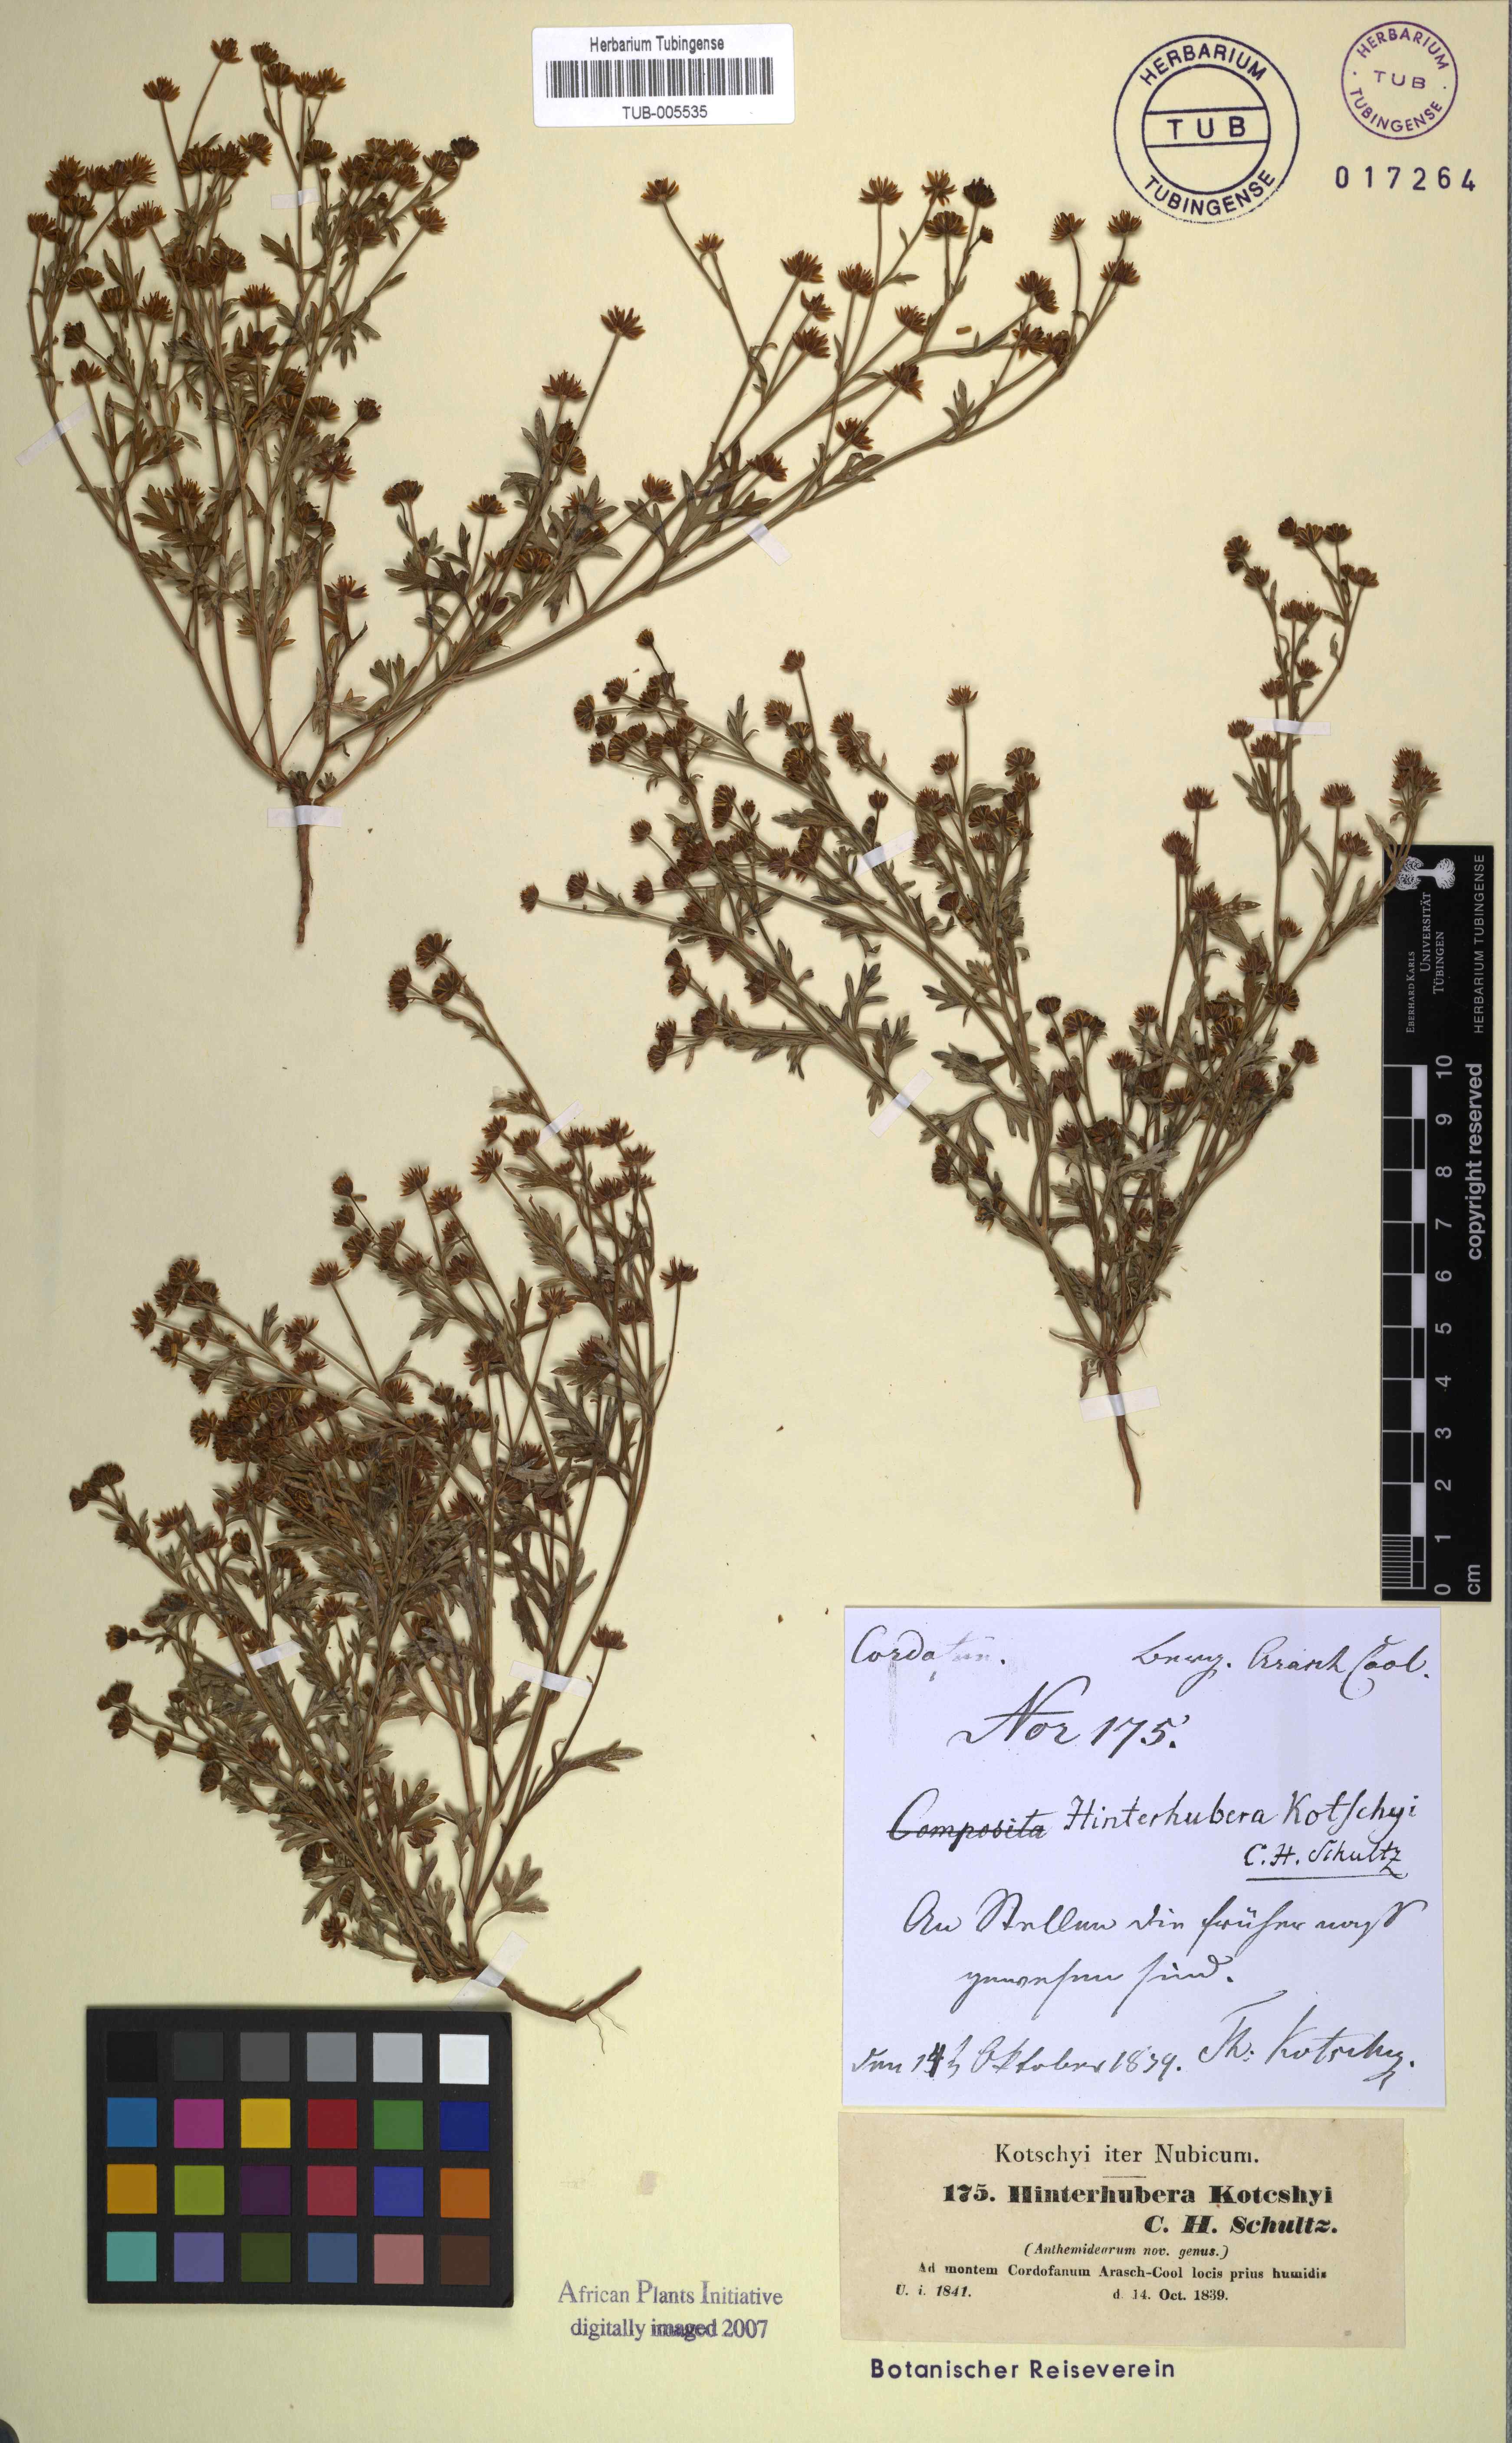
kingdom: Plantae
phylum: Tracheophyta
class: Magnoliopsida
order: Asterales
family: Asteraceae
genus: Chrysanthellum
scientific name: Chrysanthellum indicum
